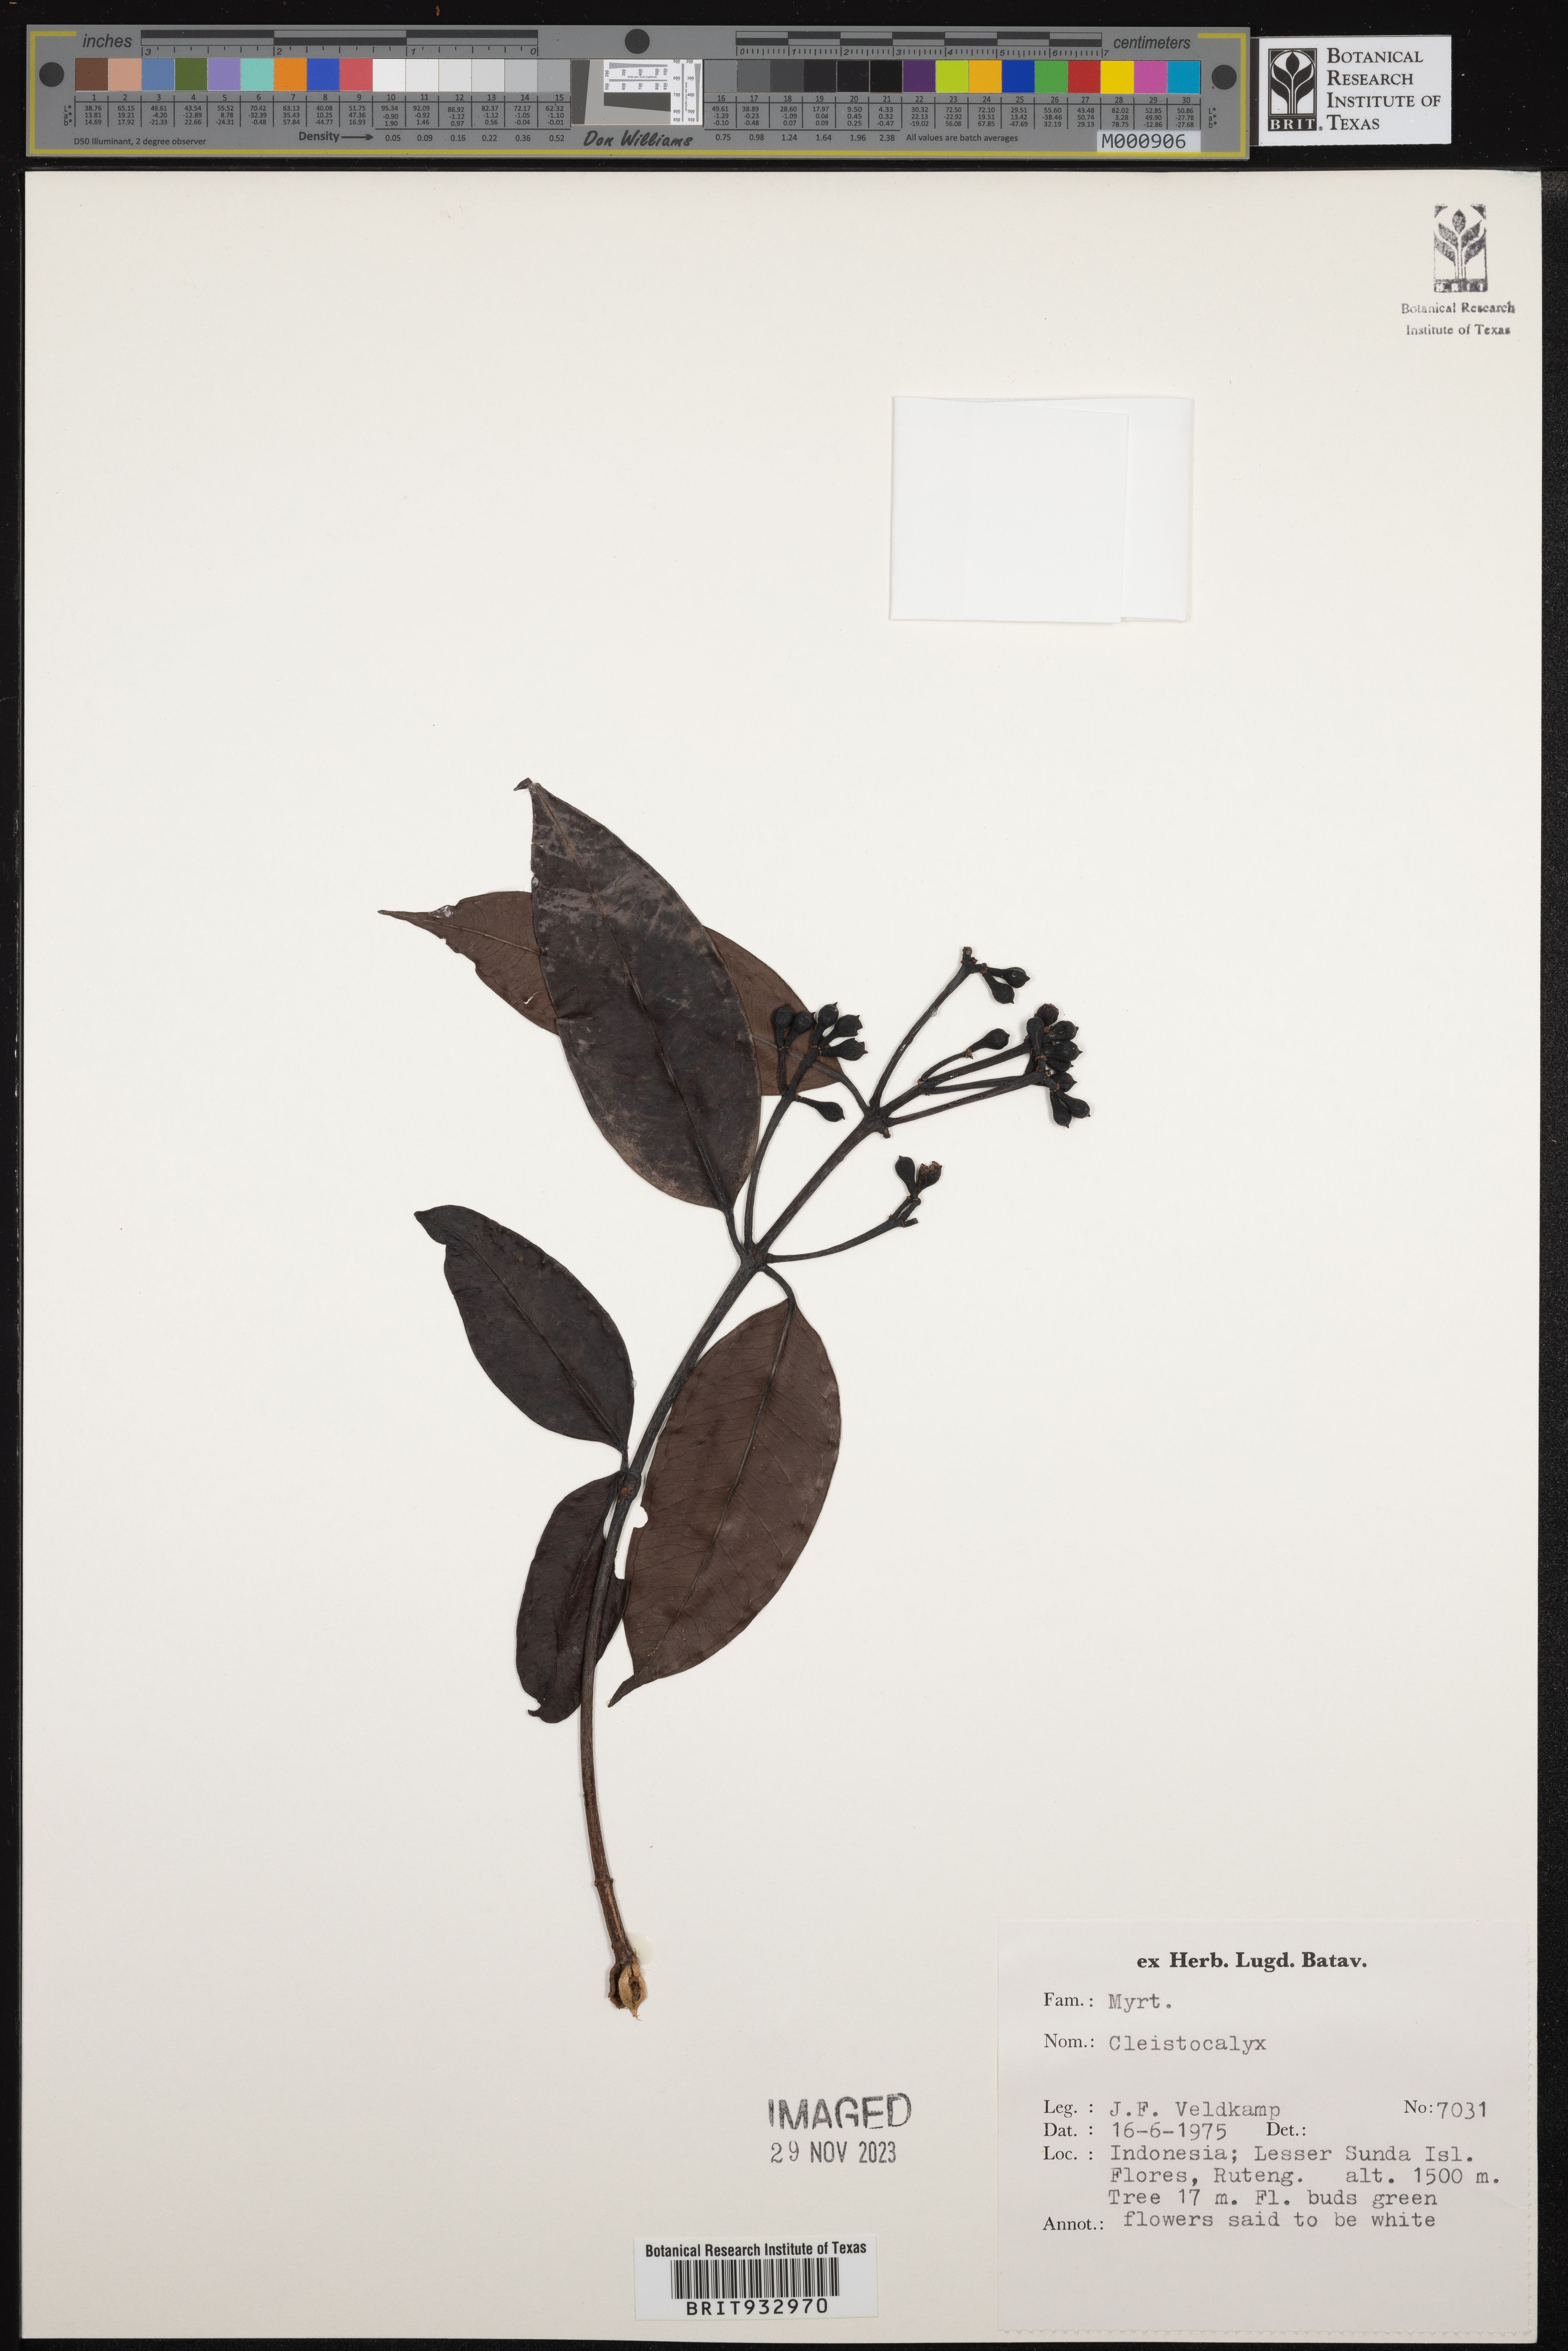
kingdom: Plantae
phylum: Tracheophyta
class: Magnoliopsida
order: Myrtales
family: Myrtaceae
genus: Syzygium
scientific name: Syzygium
